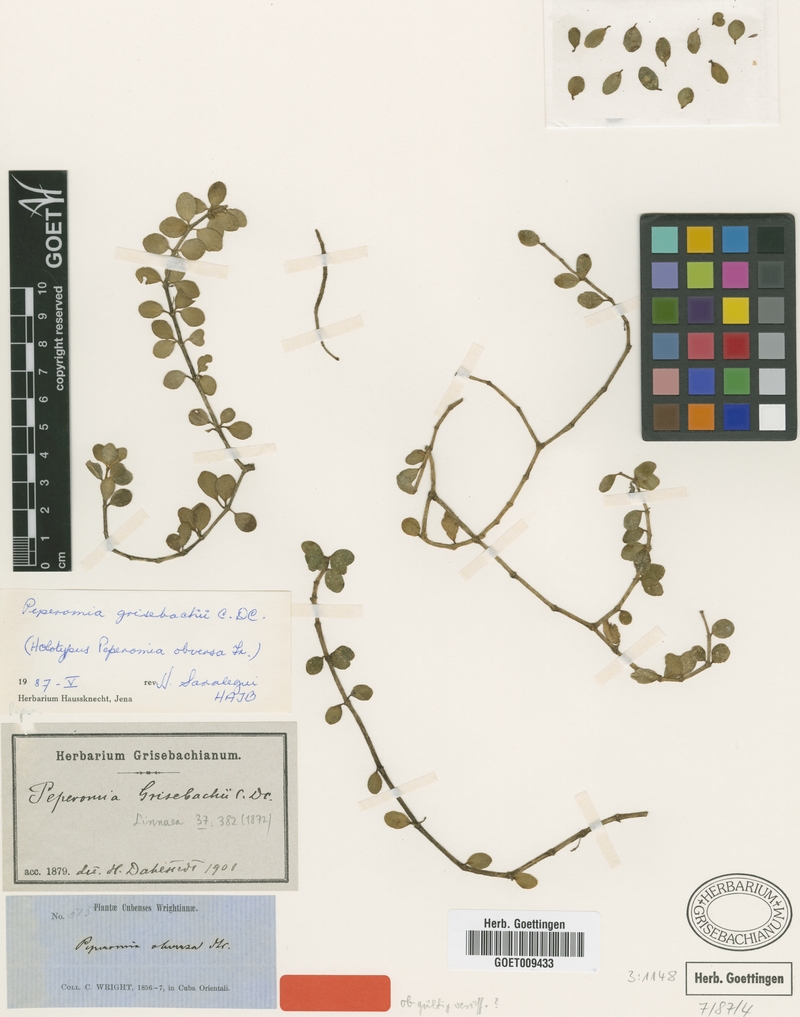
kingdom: Plantae
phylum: Tracheophyta
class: Magnoliopsida
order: Piperales
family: Piperaceae
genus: Peperomia
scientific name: Peperomia grisebachii
